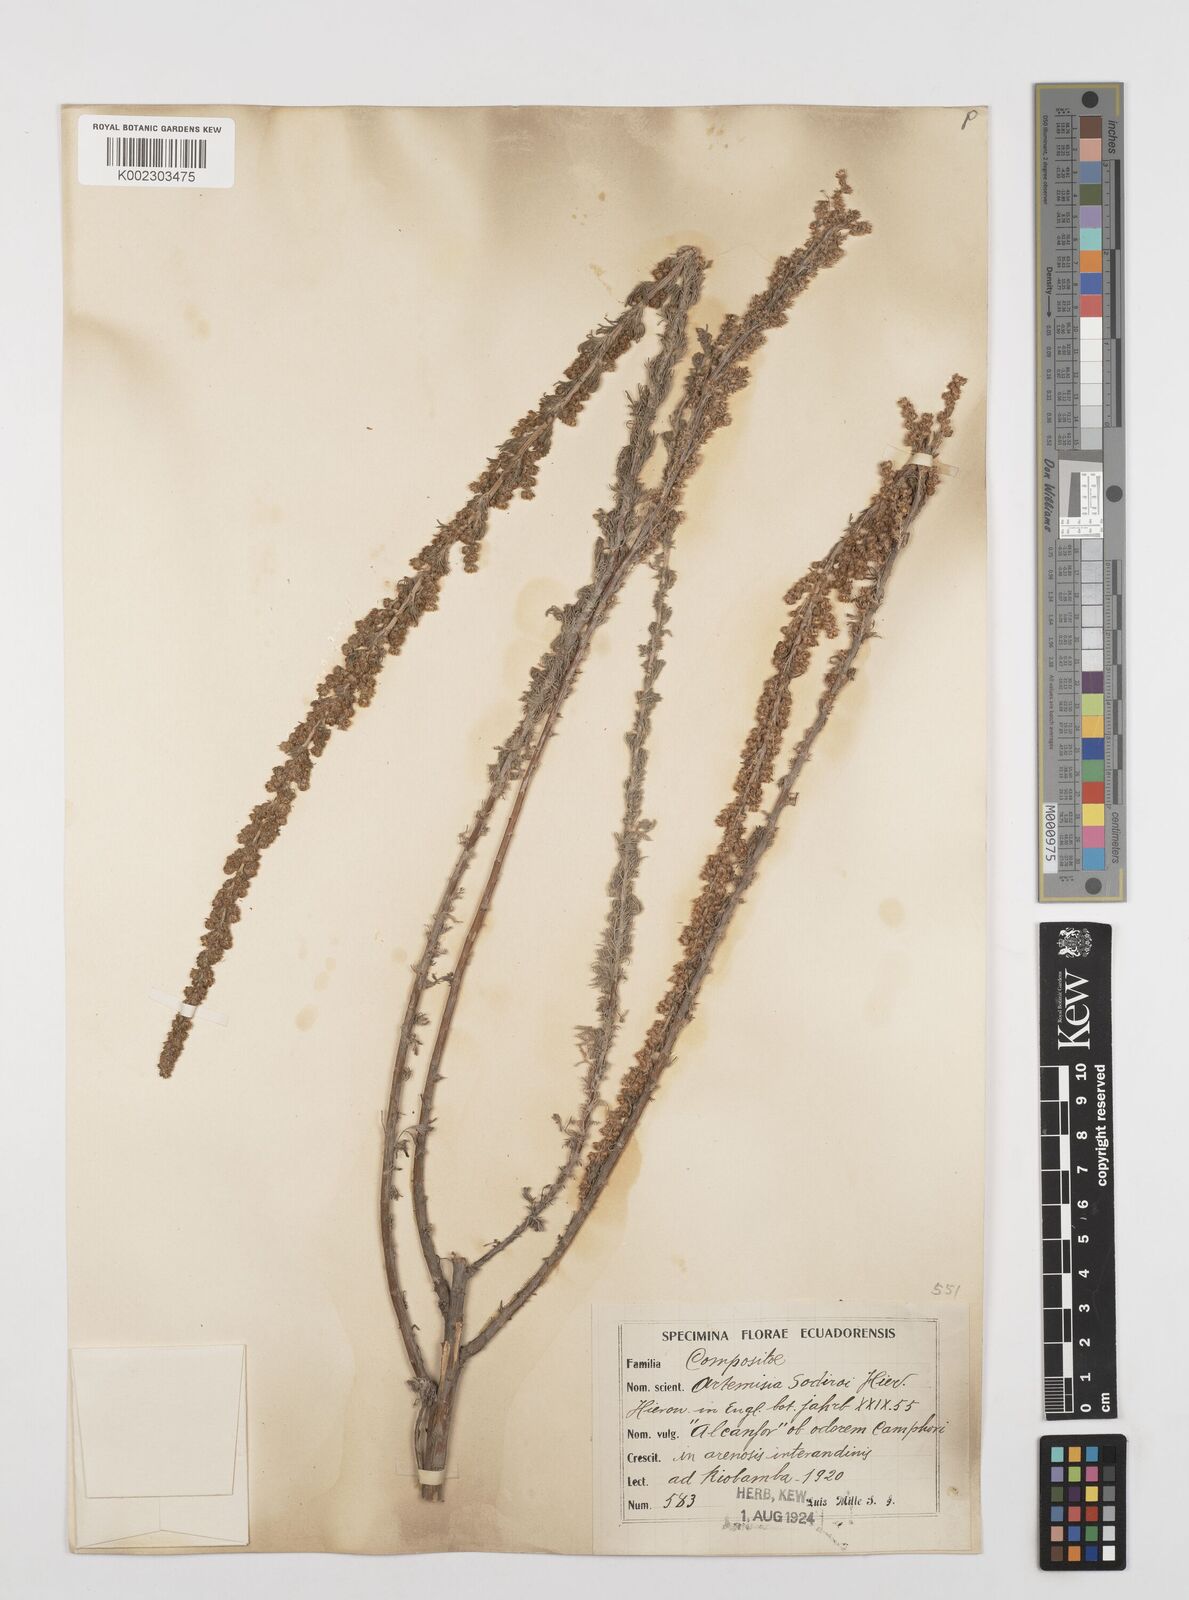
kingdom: Plantae
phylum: Tracheophyta
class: Magnoliopsida
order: Asterales
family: Asteraceae
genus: Artemisia
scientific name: Artemisia sodiroi
